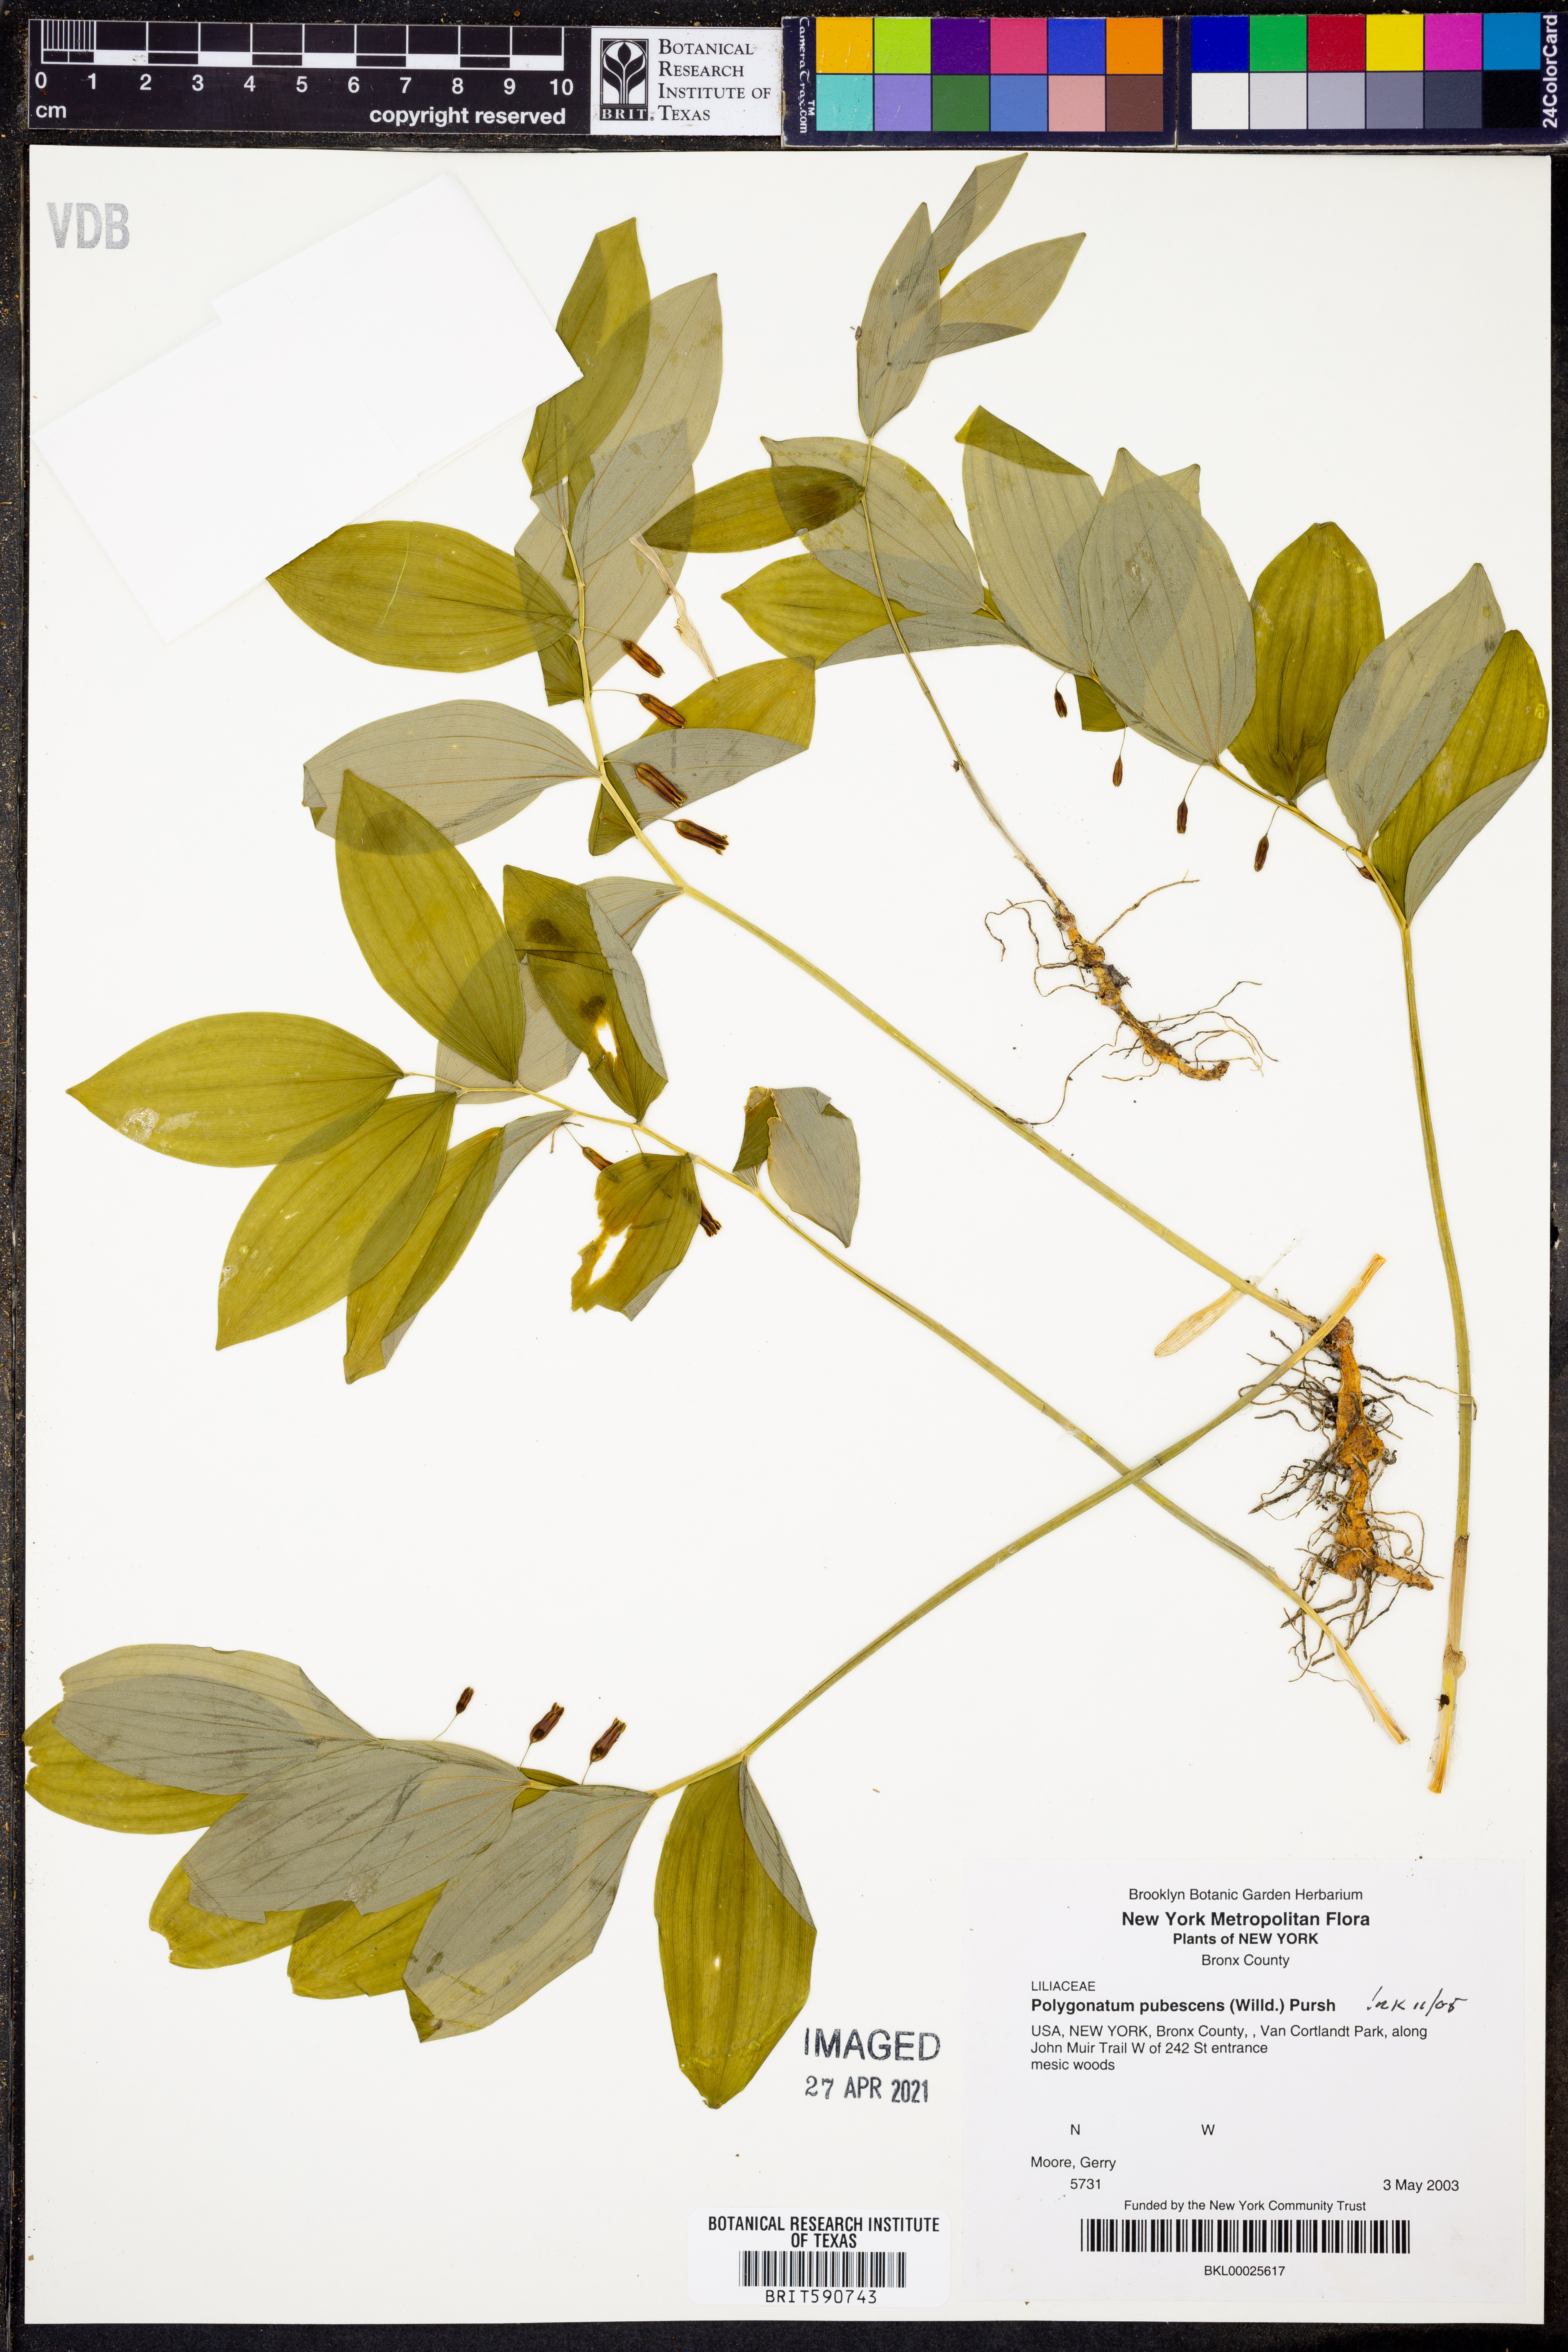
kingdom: Plantae
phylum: Tracheophyta
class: Liliopsida
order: Asparagales
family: Asparagaceae
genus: Polygonatum
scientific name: Polygonatum pubescens
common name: Downy solomon's seal
